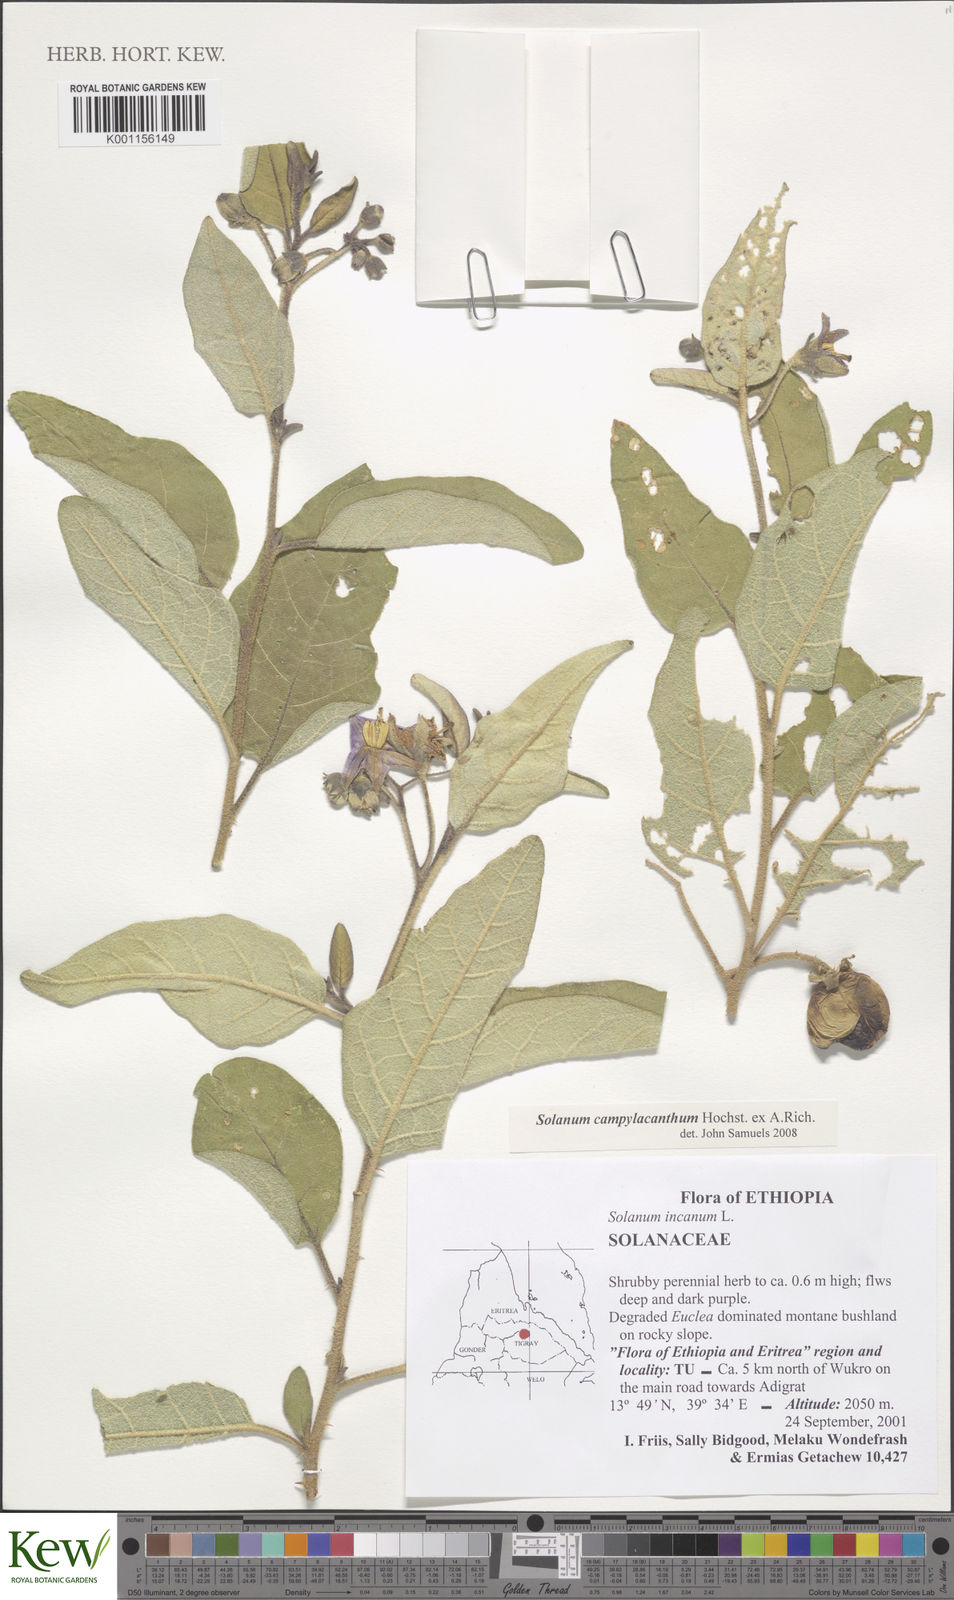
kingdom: Plantae
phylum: Tracheophyta
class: Magnoliopsida
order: Solanales
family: Solanaceae
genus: Solanum
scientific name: Solanum campylacanthum
